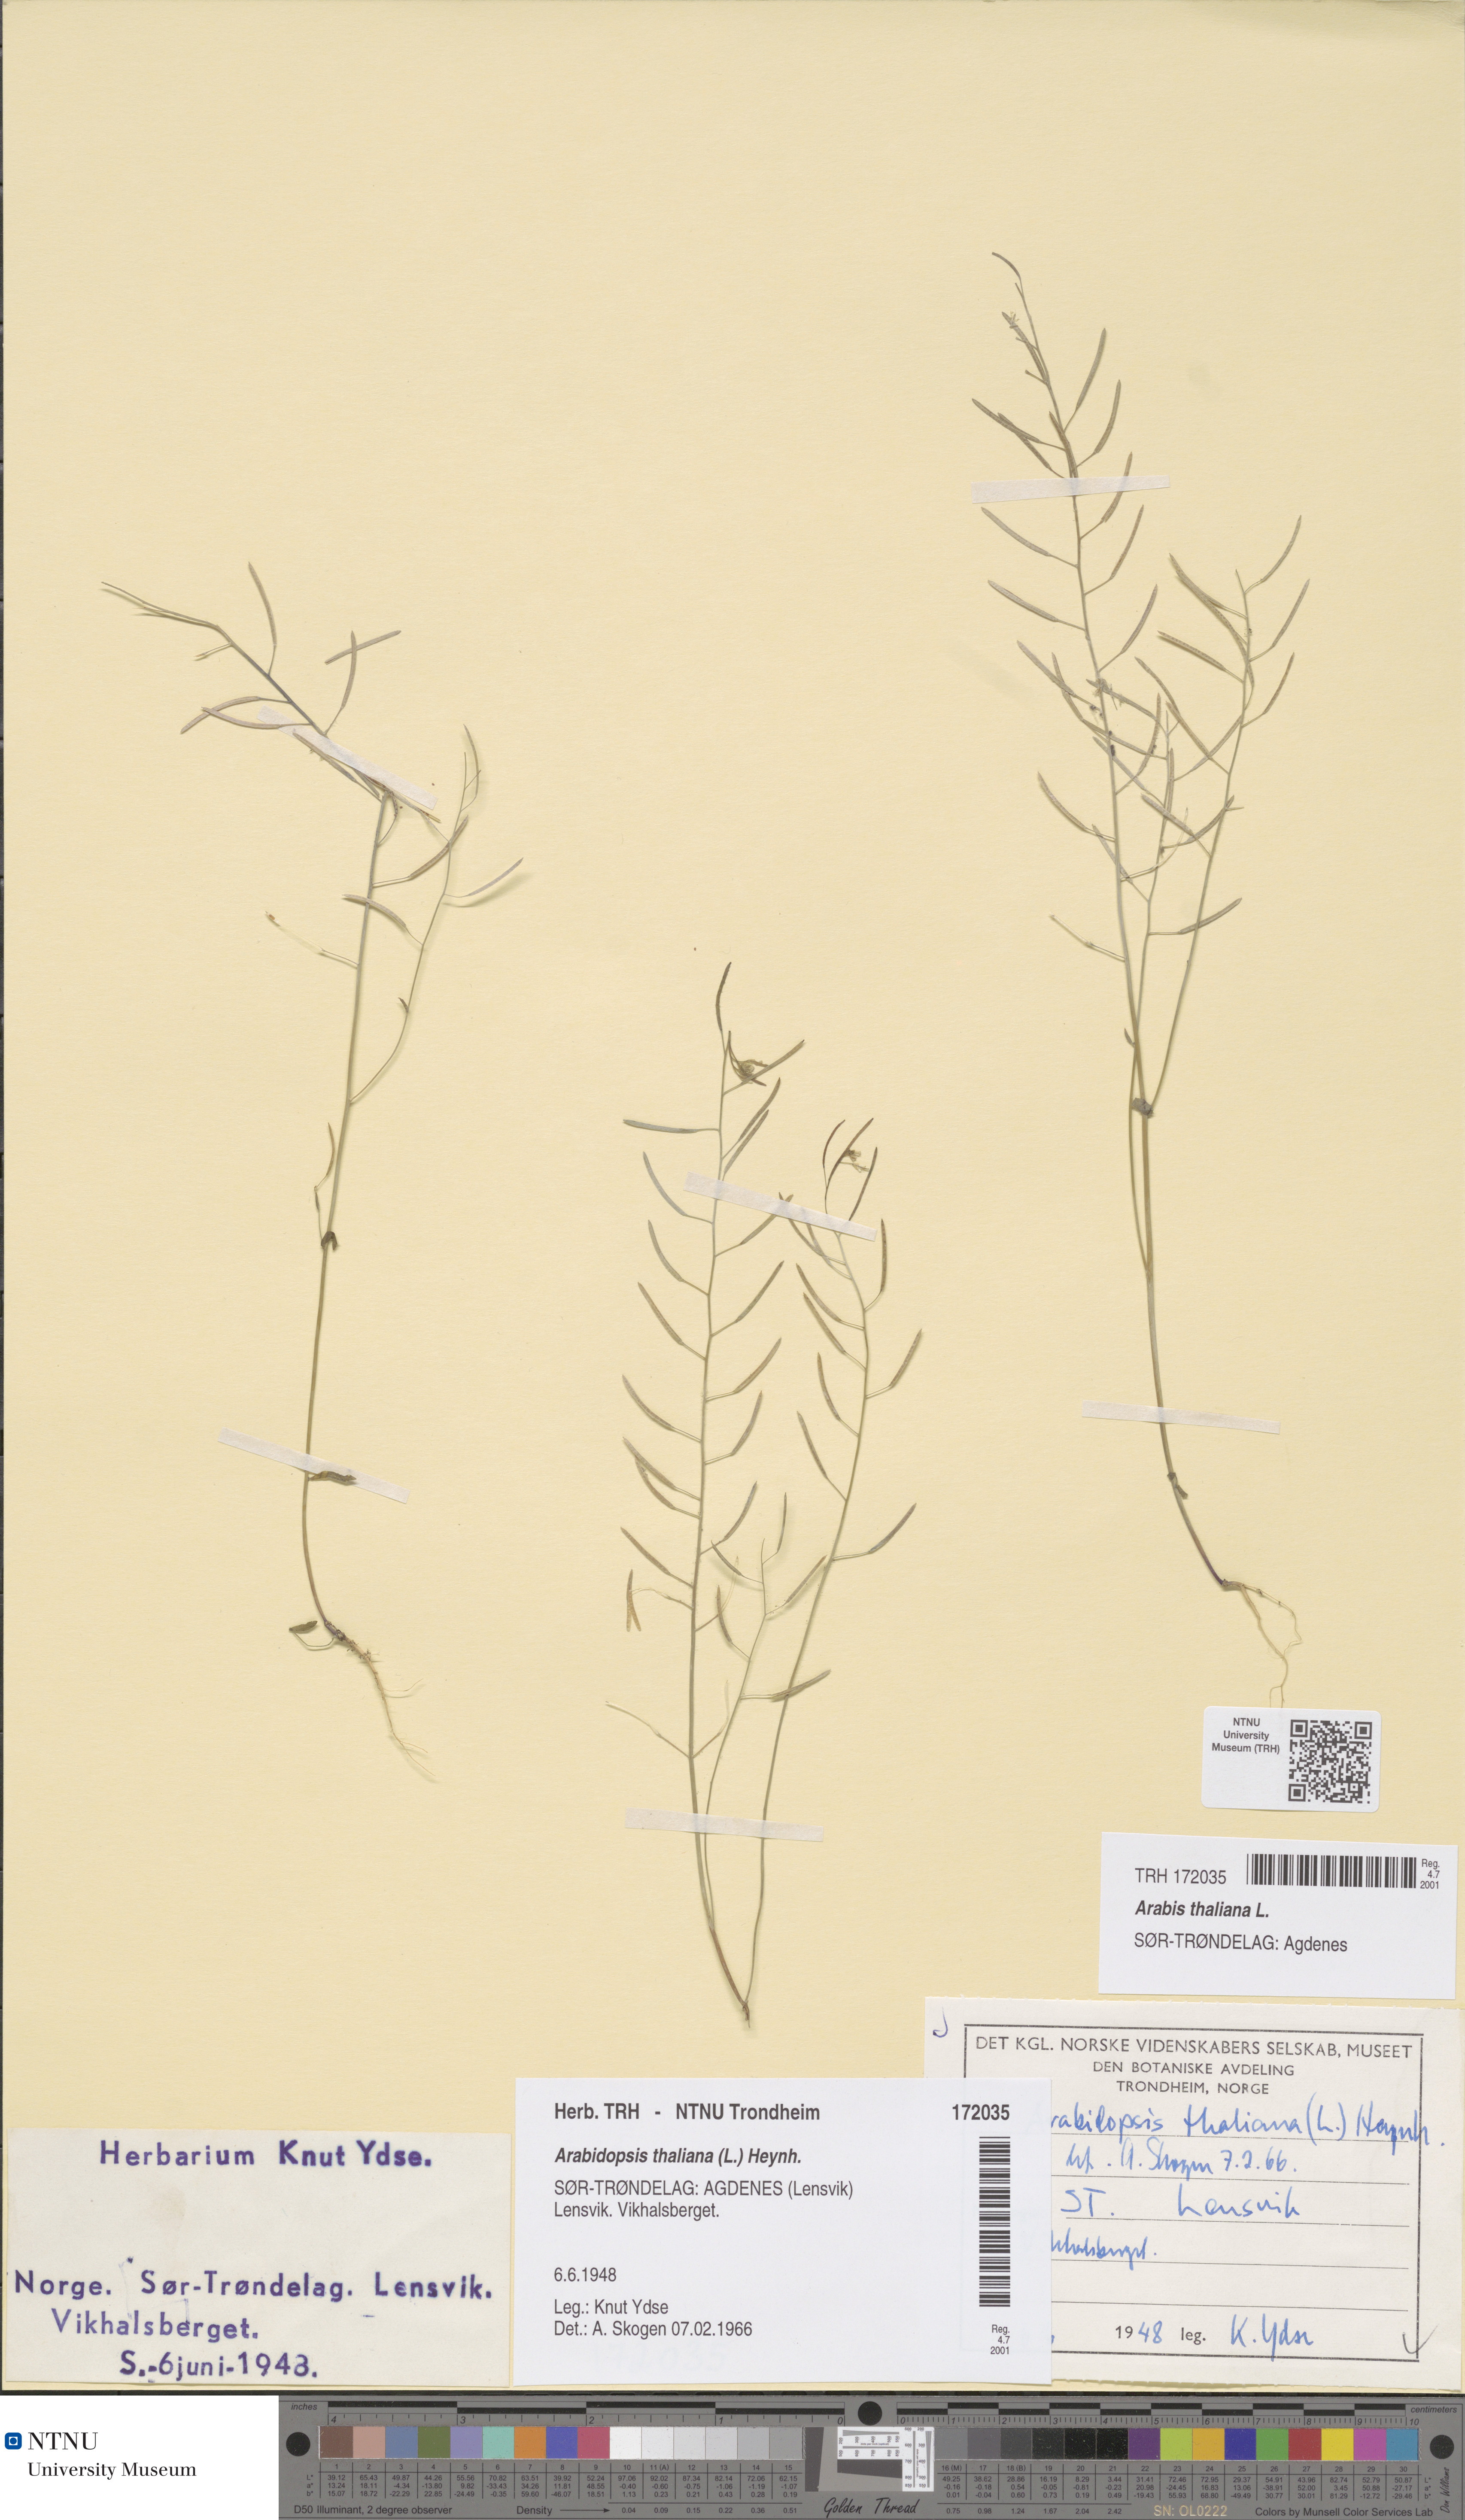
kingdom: Plantae
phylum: Tracheophyta
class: Magnoliopsida
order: Brassicales
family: Brassicaceae
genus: Arabidopsis
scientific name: Arabidopsis thaliana
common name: Thale cress
